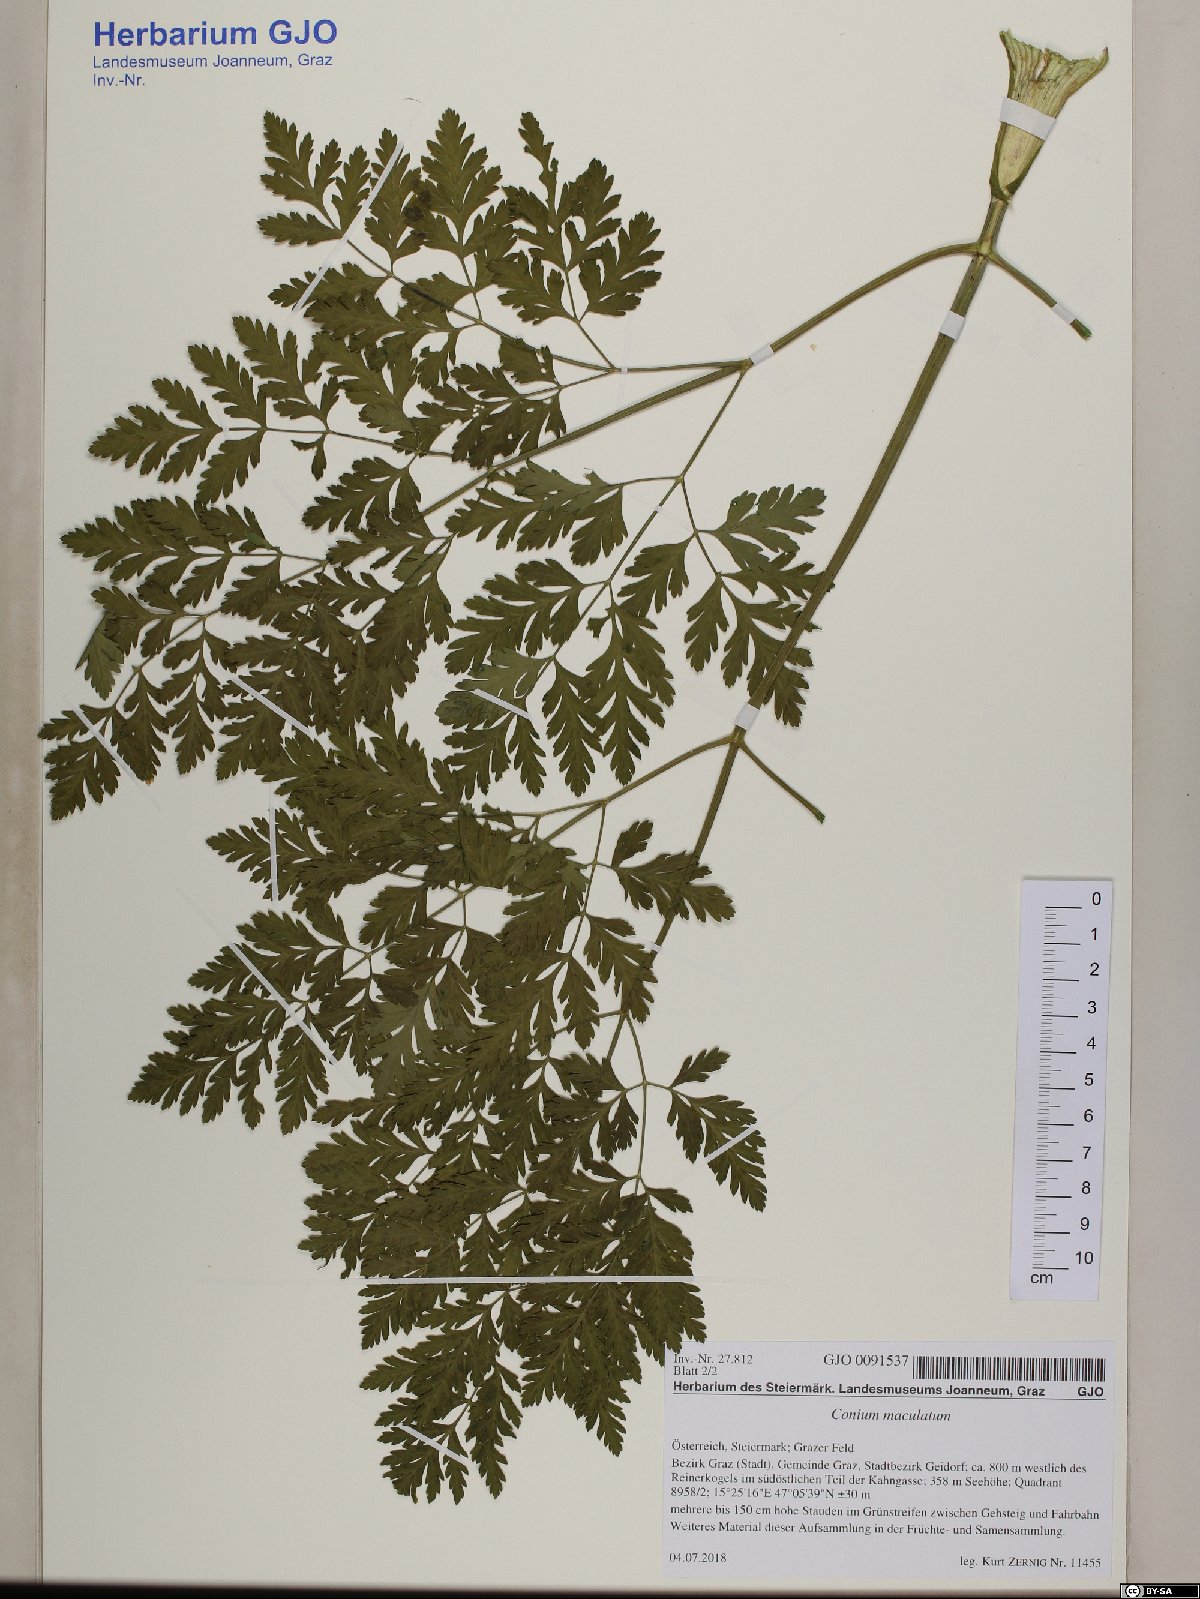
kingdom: Plantae
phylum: Tracheophyta
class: Magnoliopsida
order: Apiales
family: Apiaceae
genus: Conium
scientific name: Conium maculatum
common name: Hemlock
